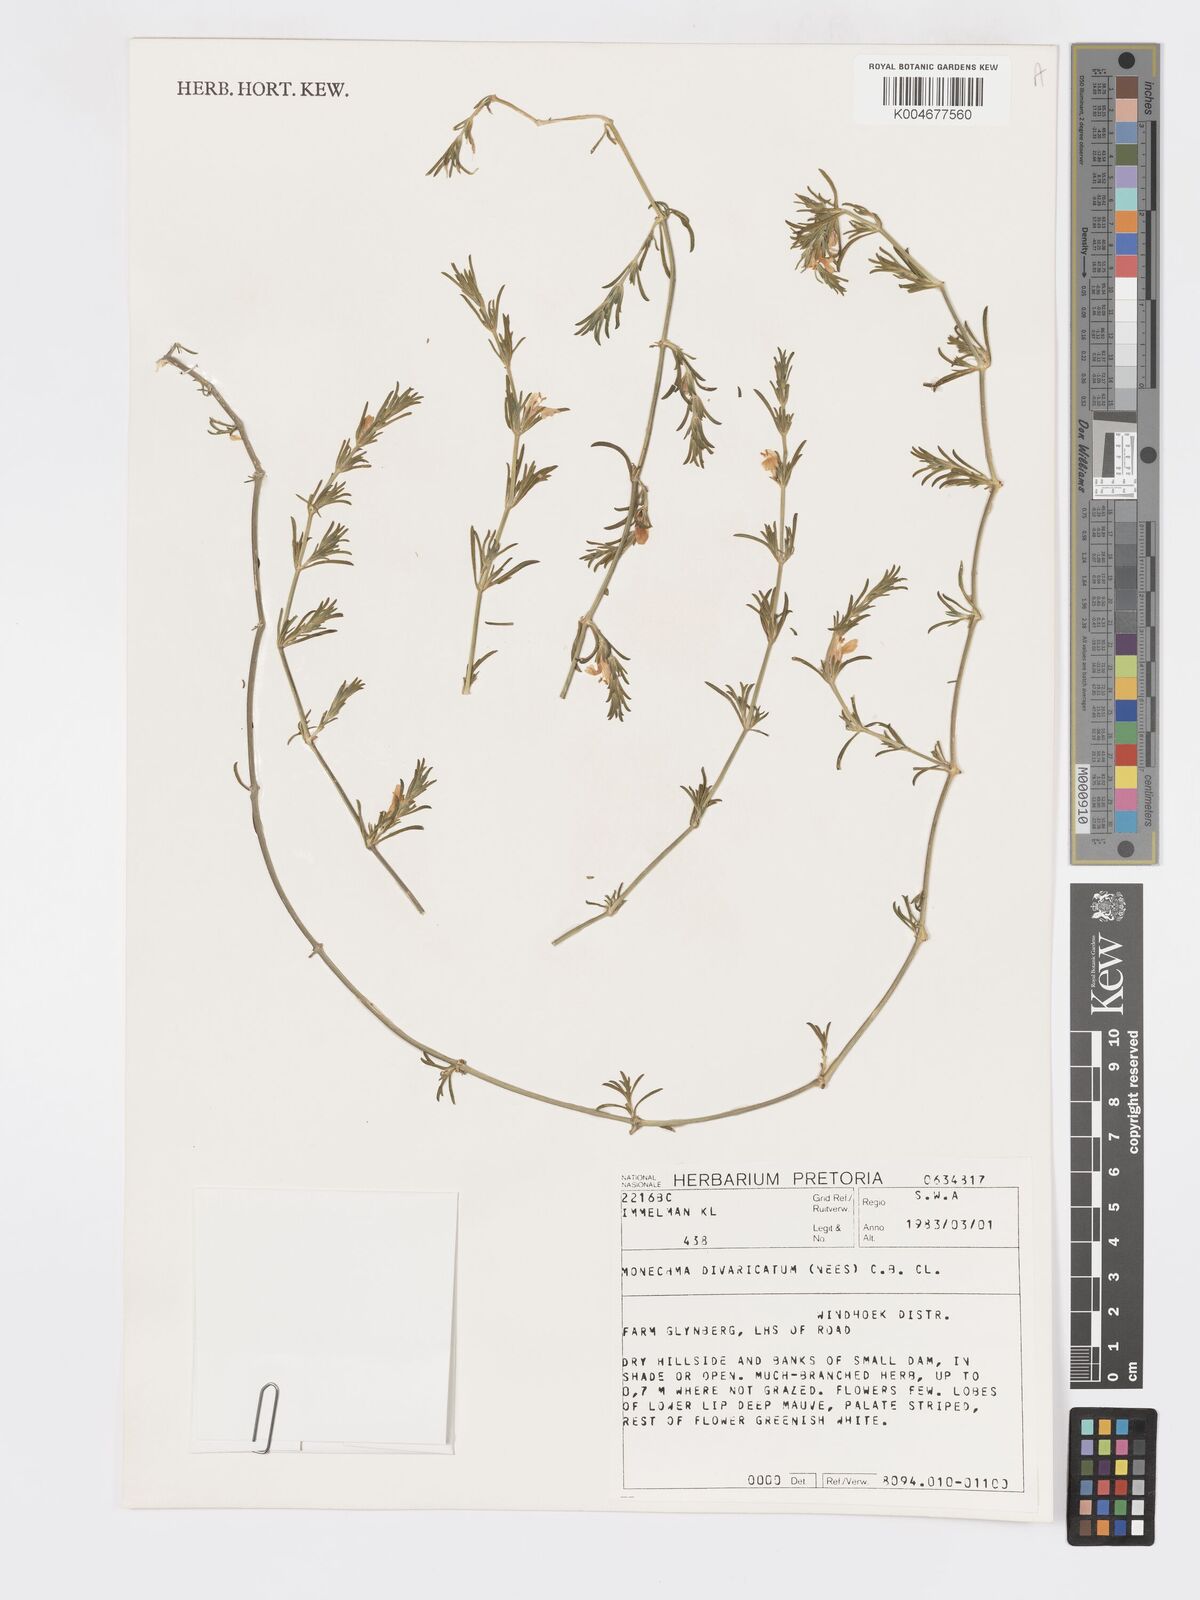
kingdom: Plantae
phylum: Tracheophyta
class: Magnoliopsida
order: Lamiales
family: Acanthaceae
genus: Pogonospermum
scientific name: Pogonospermum
